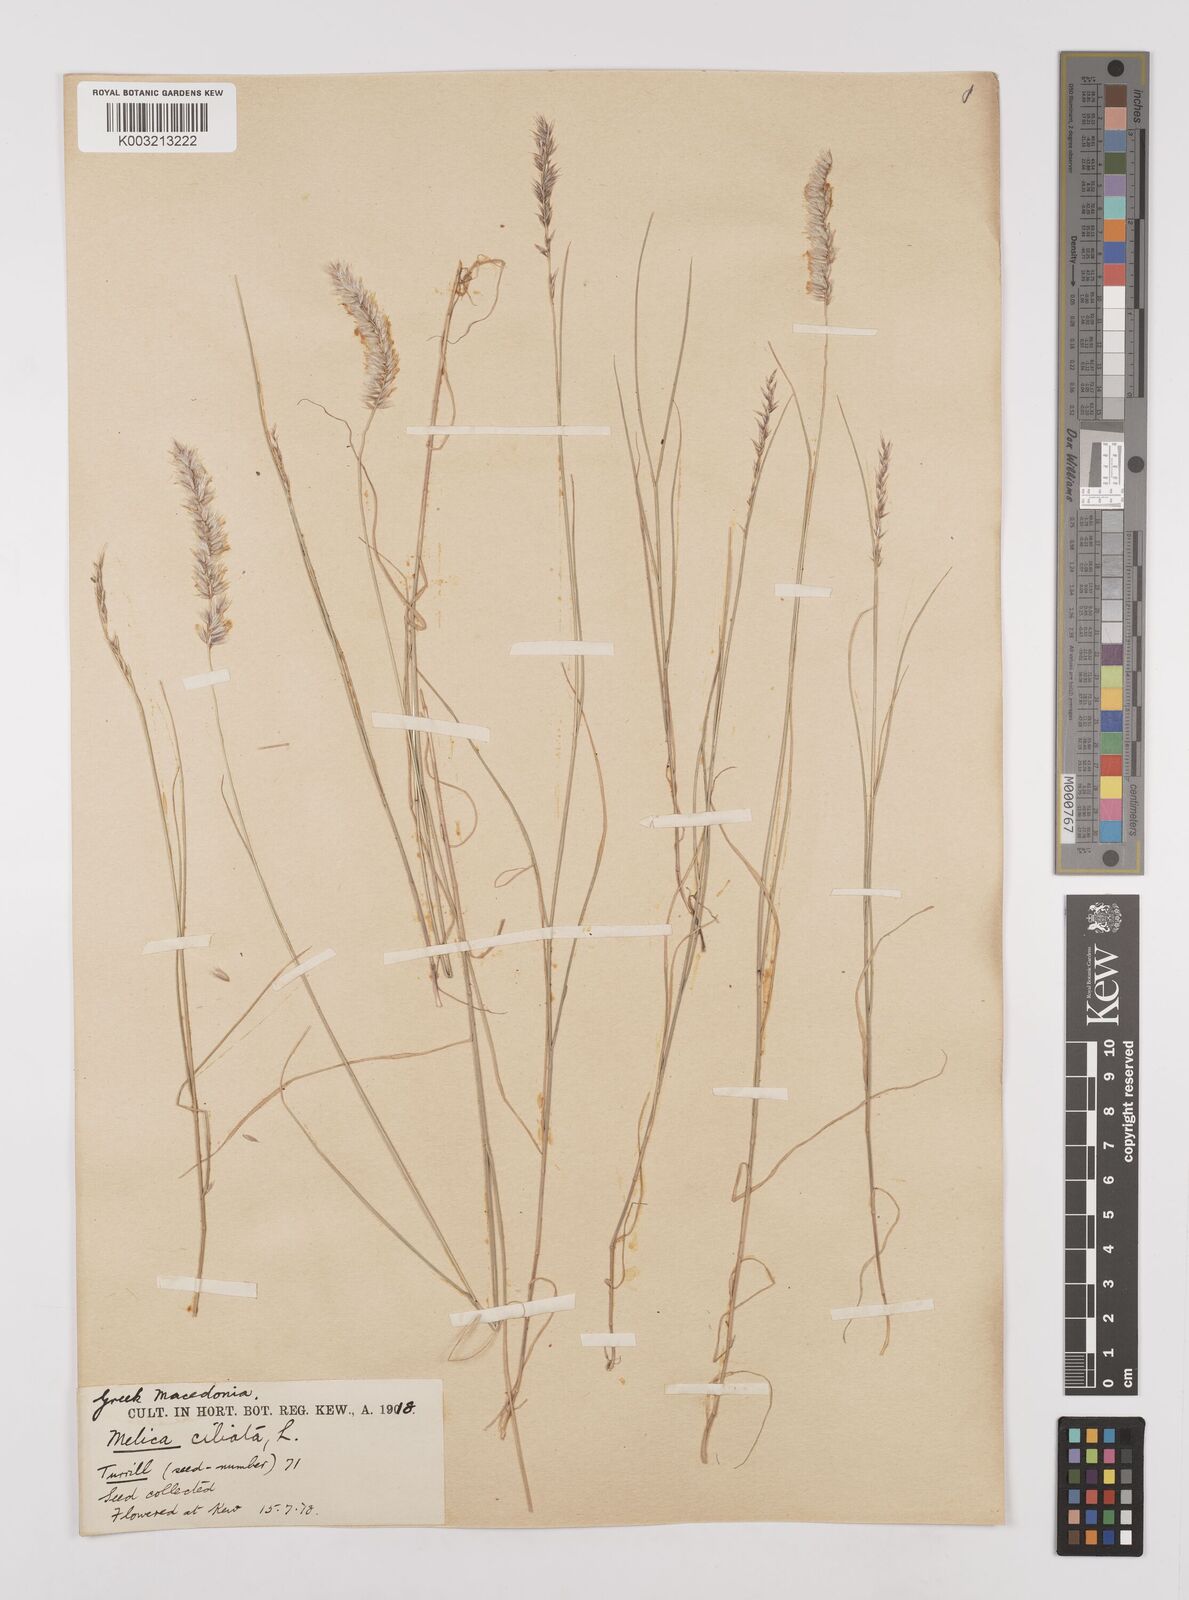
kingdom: Plantae
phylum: Tracheophyta
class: Liliopsida
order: Poales
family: Poaceae
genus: Melica
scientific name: Melica ciliata
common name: Hairy melicgrass
